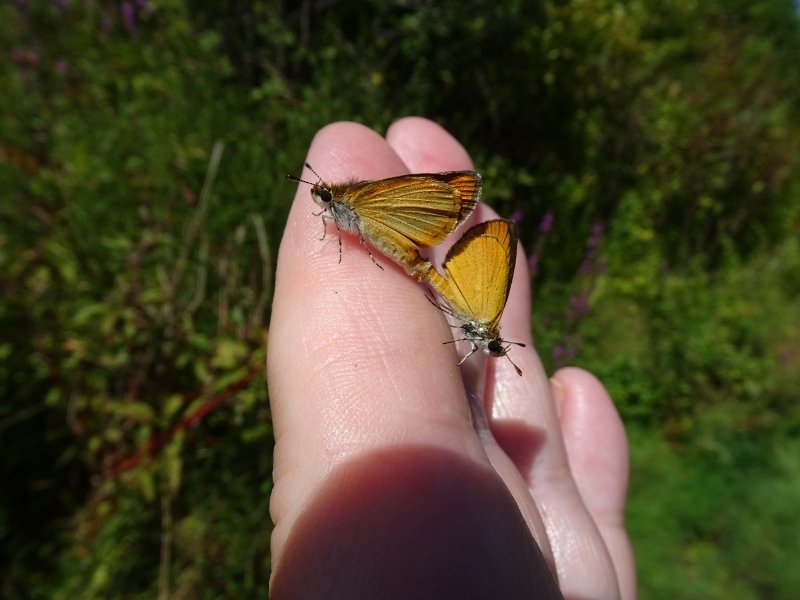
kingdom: Animalia
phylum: Arthropoda
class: Insecta
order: Lepidoptera
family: Hesperiidae
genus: Ancyloxypha
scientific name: Ancyloxypha numitor
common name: Least Skipper
